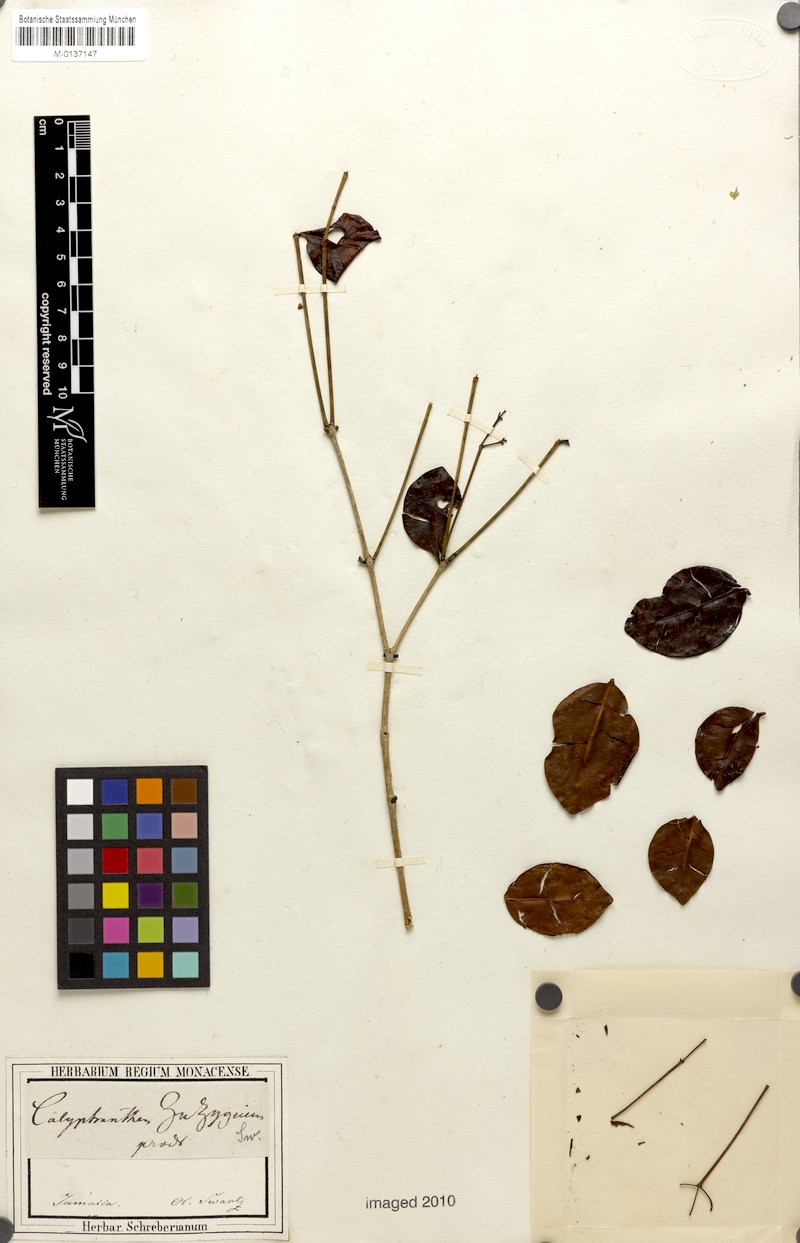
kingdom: Plantae
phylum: Tracheophyta
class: Magnoliopsida
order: Myrtales
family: Myrtaceae
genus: Myrcia
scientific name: Myrcia chytraculia
